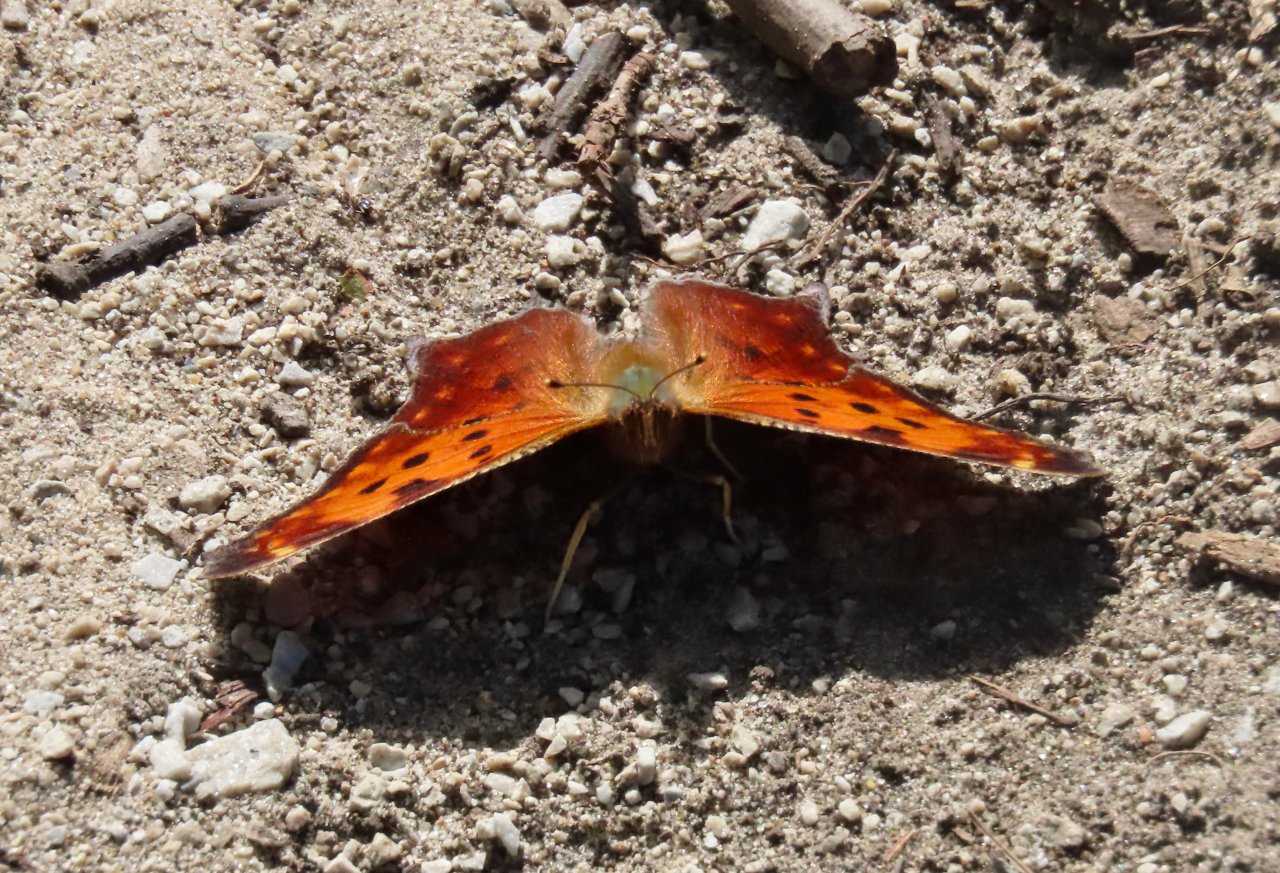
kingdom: Animalia
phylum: Arthropoda
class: Insecta
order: Lepidoptera
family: Nymphalidae
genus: Polygonia
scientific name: Polygonia comma
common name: Eastern Comma
